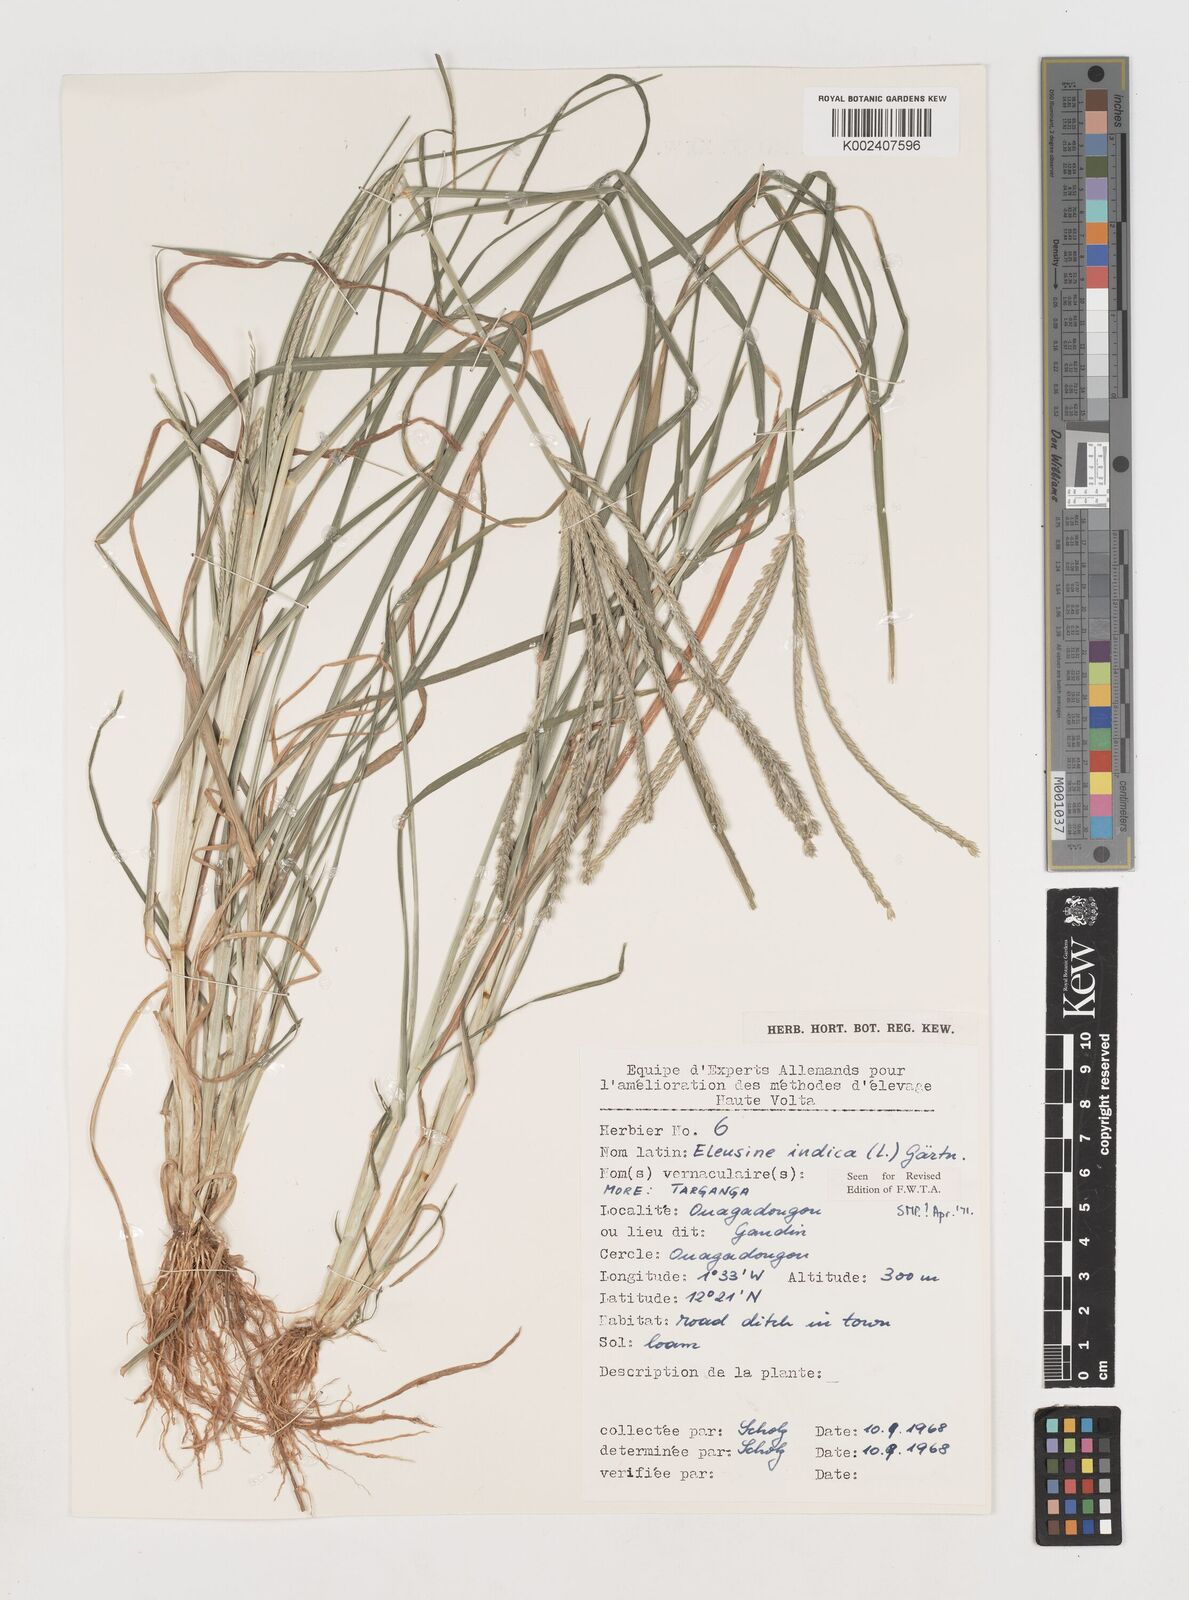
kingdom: Plantae
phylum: Tracheophyta
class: Liliopsida
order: Poales
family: Poaceae
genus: Eleusine
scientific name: Eleusine indica
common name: Yard-grass
